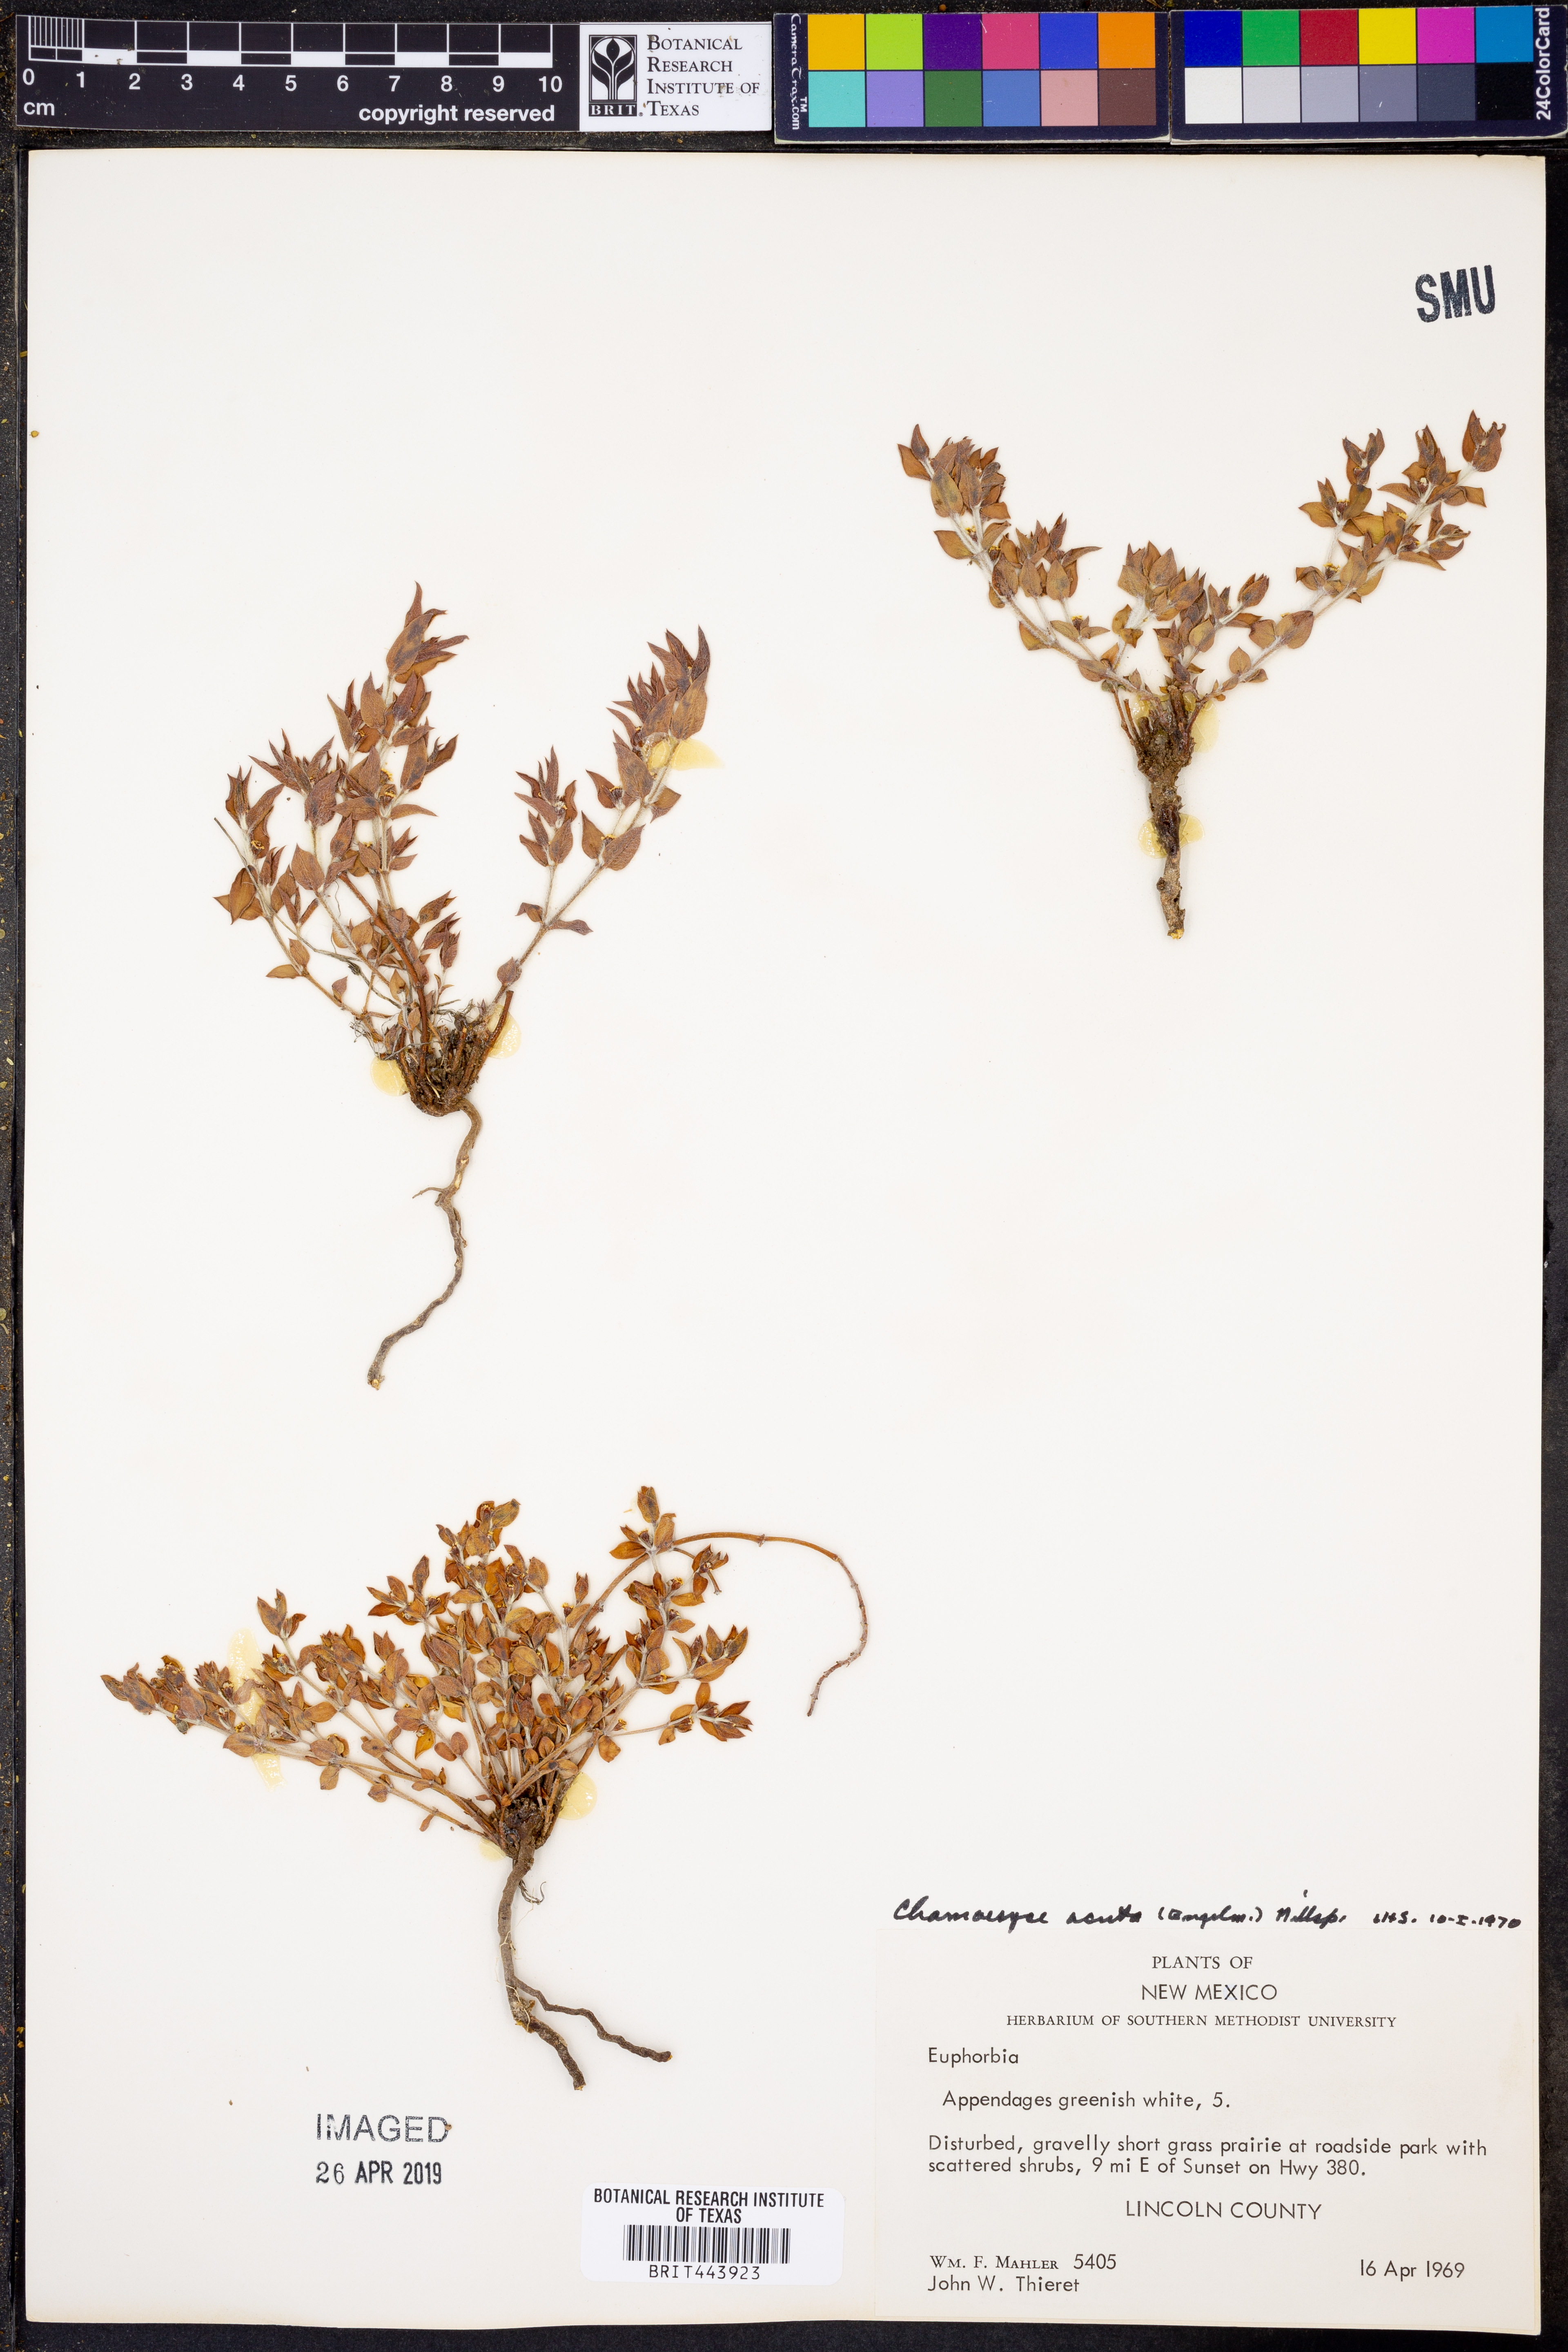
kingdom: Plantae
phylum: Tracheophyta
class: Magnoliopsida
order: Malpighiales
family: Euphorbiaceae
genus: Euphorbia
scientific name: Euphorbia
